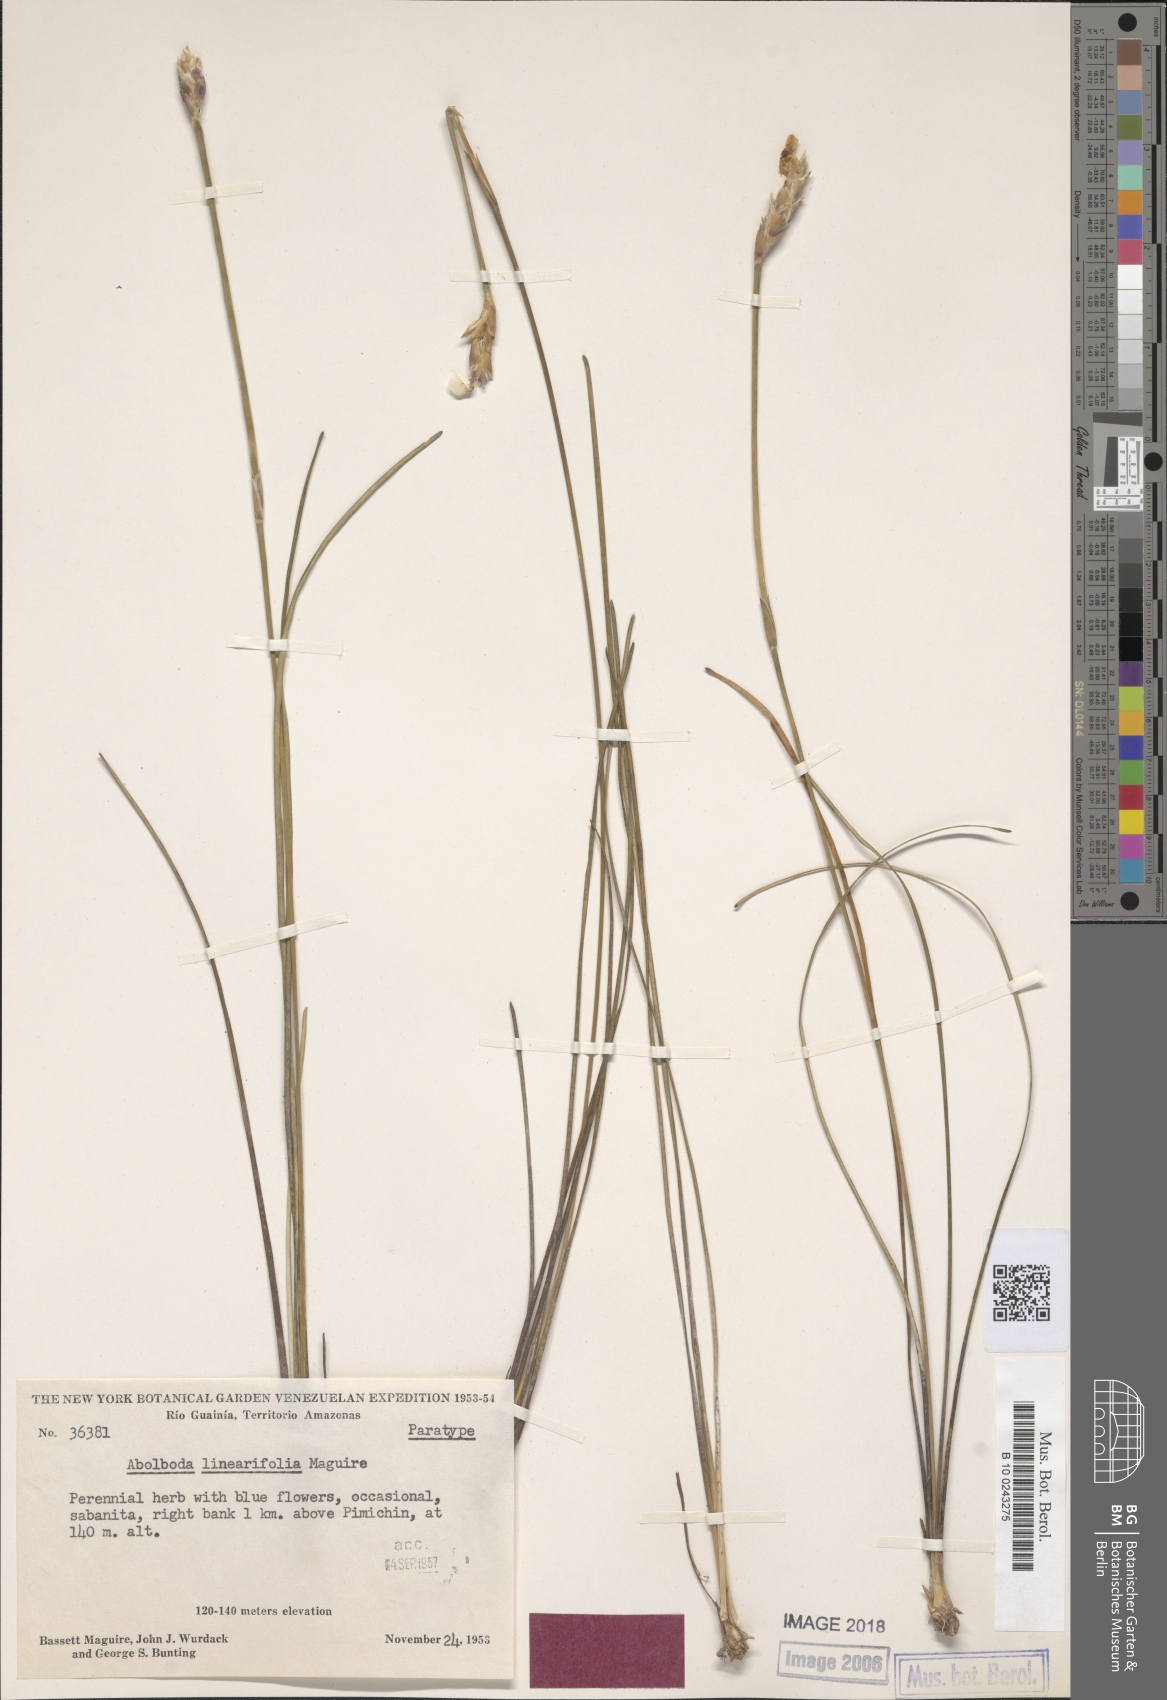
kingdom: Plantae
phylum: Tracheophyta
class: Liliopsida
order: Poales
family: Xyridaceae
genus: Abolboda
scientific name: Abolboda linearifolia
